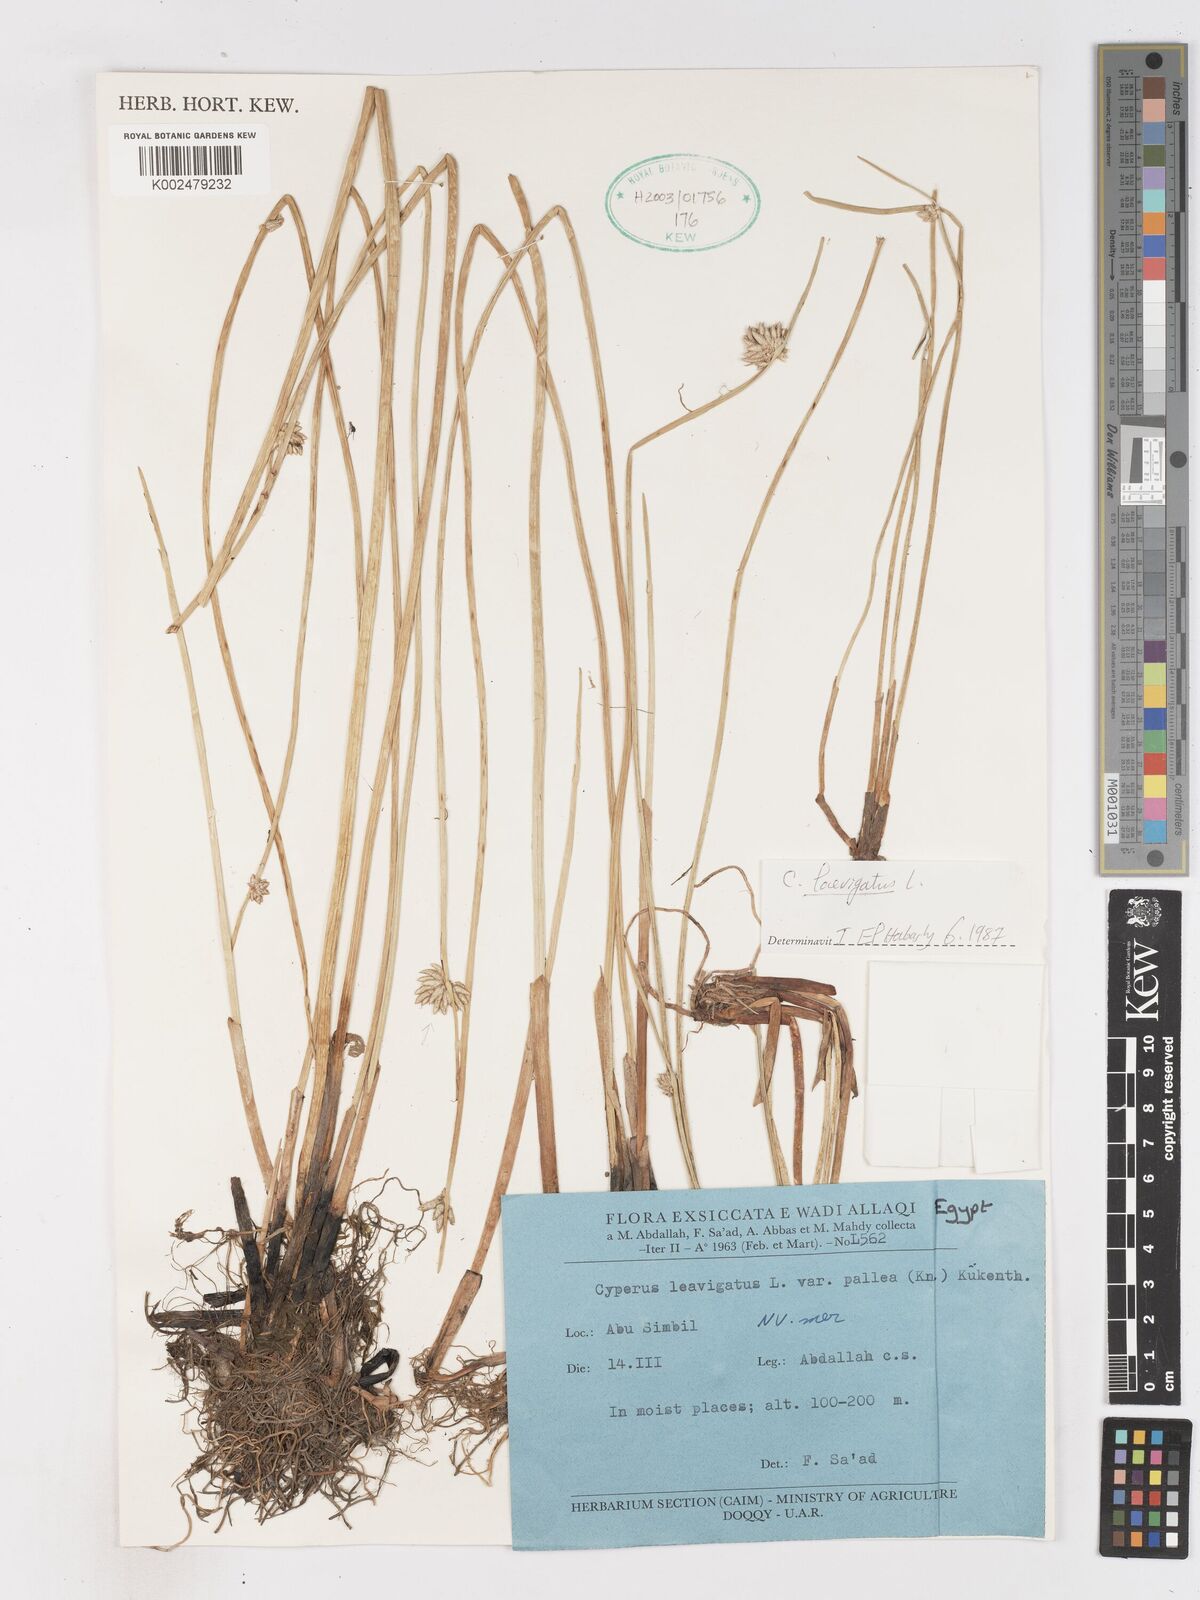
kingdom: Plantae
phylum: Tracheophyta
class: Liliopsida
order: Poales
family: Cyperaceae
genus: Cyperus
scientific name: Cyperus laevigatus
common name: Smooth flat sedge
